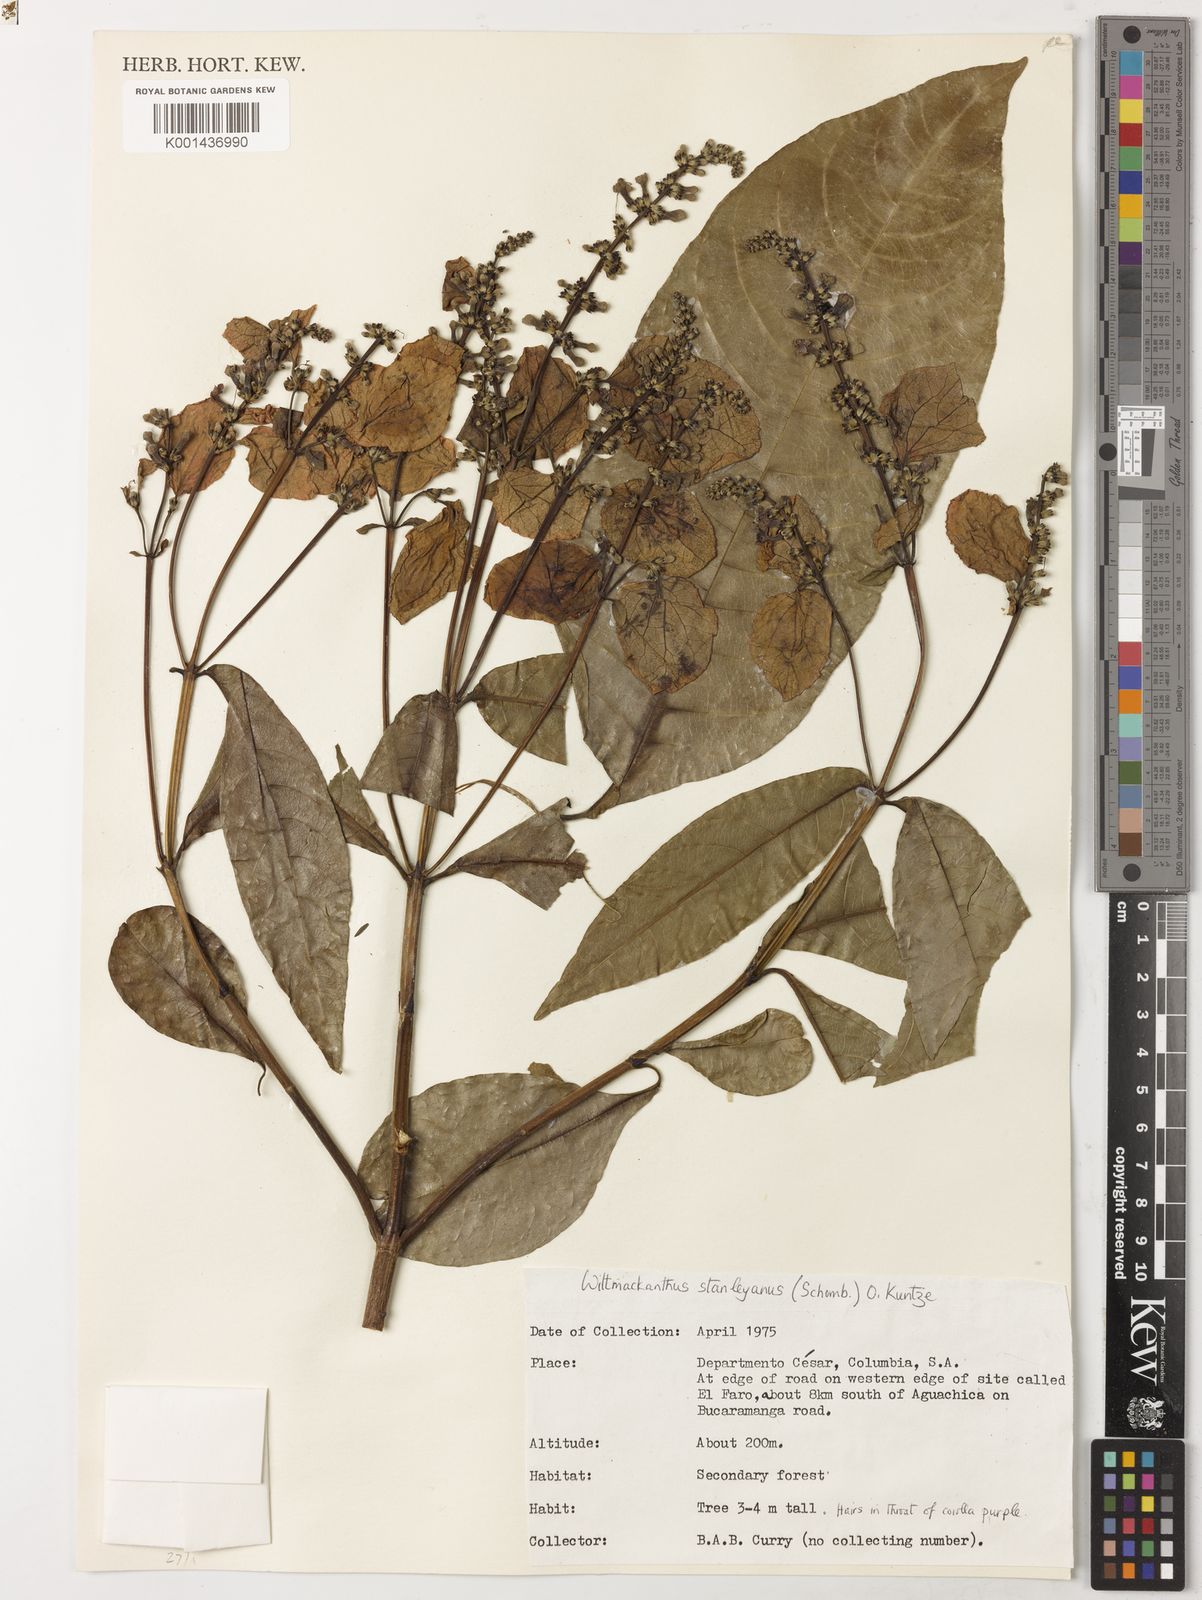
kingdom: Plantae
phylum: Tracheophyta
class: Magnoliopsida
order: Gentianales
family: Rubiaceae
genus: Wittmackanthus
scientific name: Wittmackanthus stanleyanus
